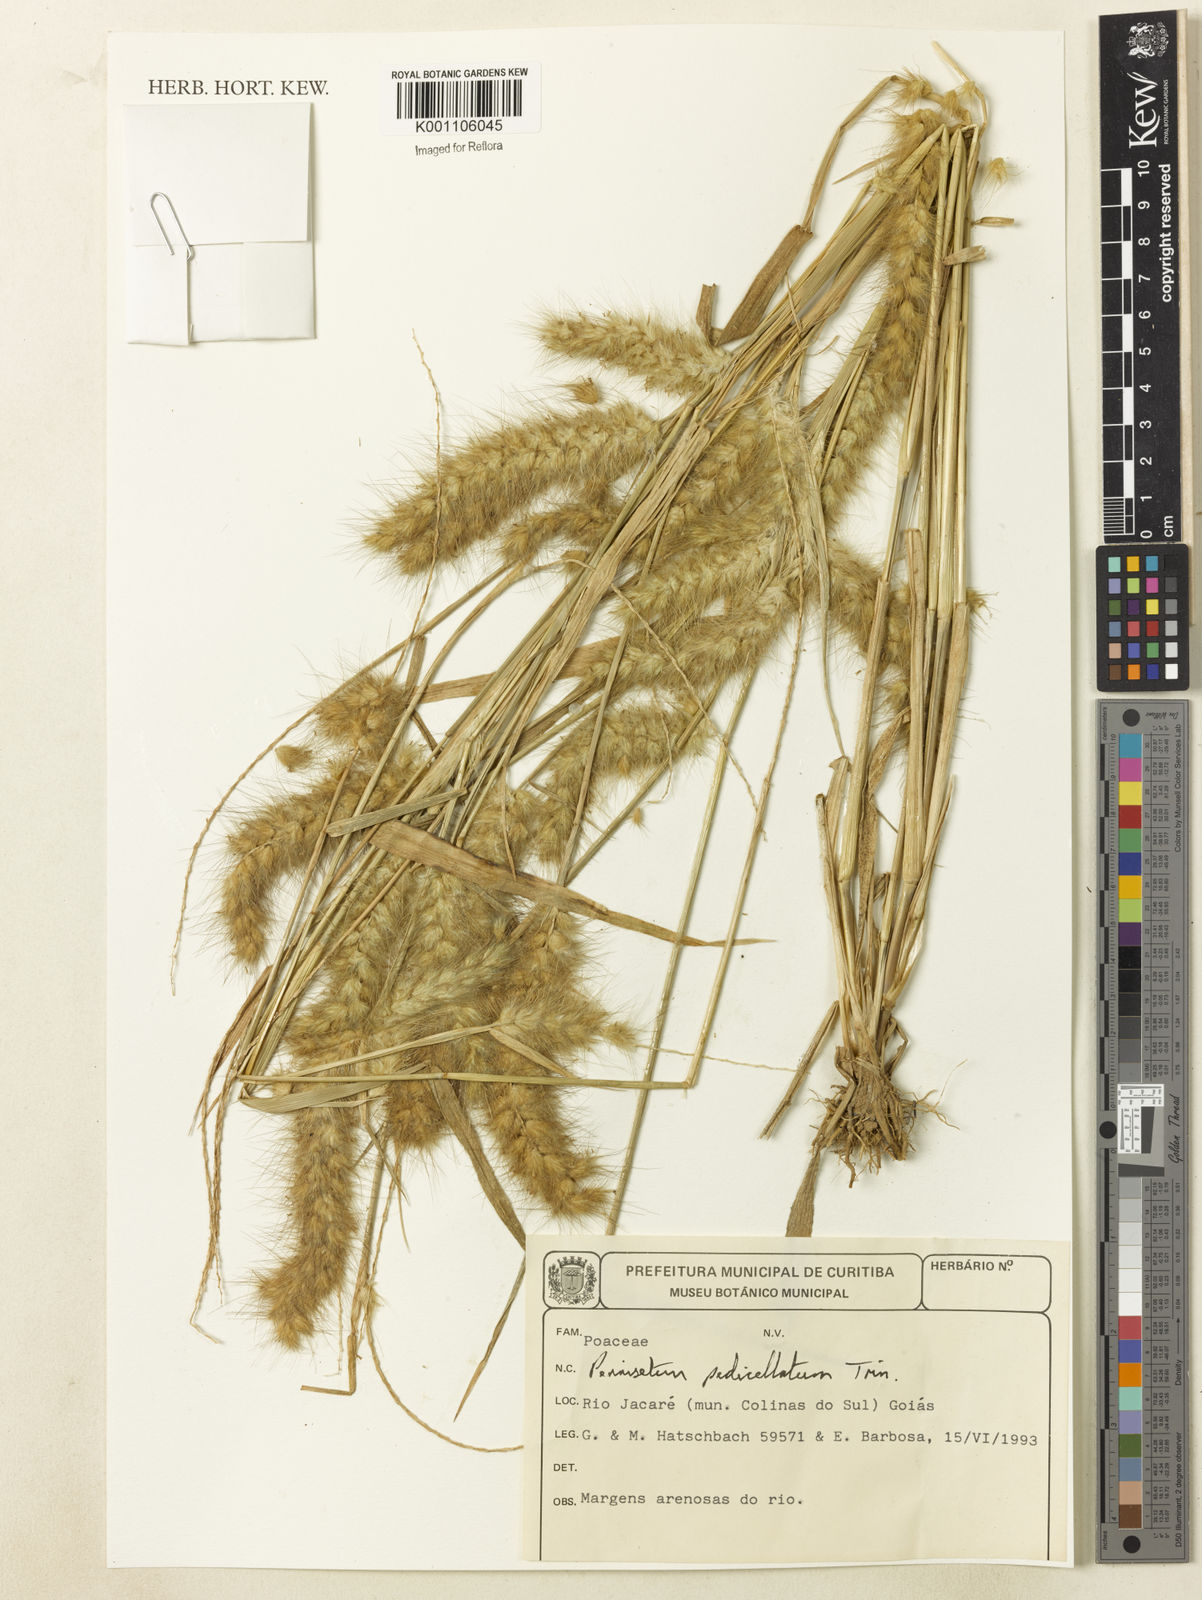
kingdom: Plantae
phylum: Tracheophyta
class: Liliopsida
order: Poales
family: Poaceae
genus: Cenchrus
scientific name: Cenchrus pedicellatus
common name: Hairy fountain grass
